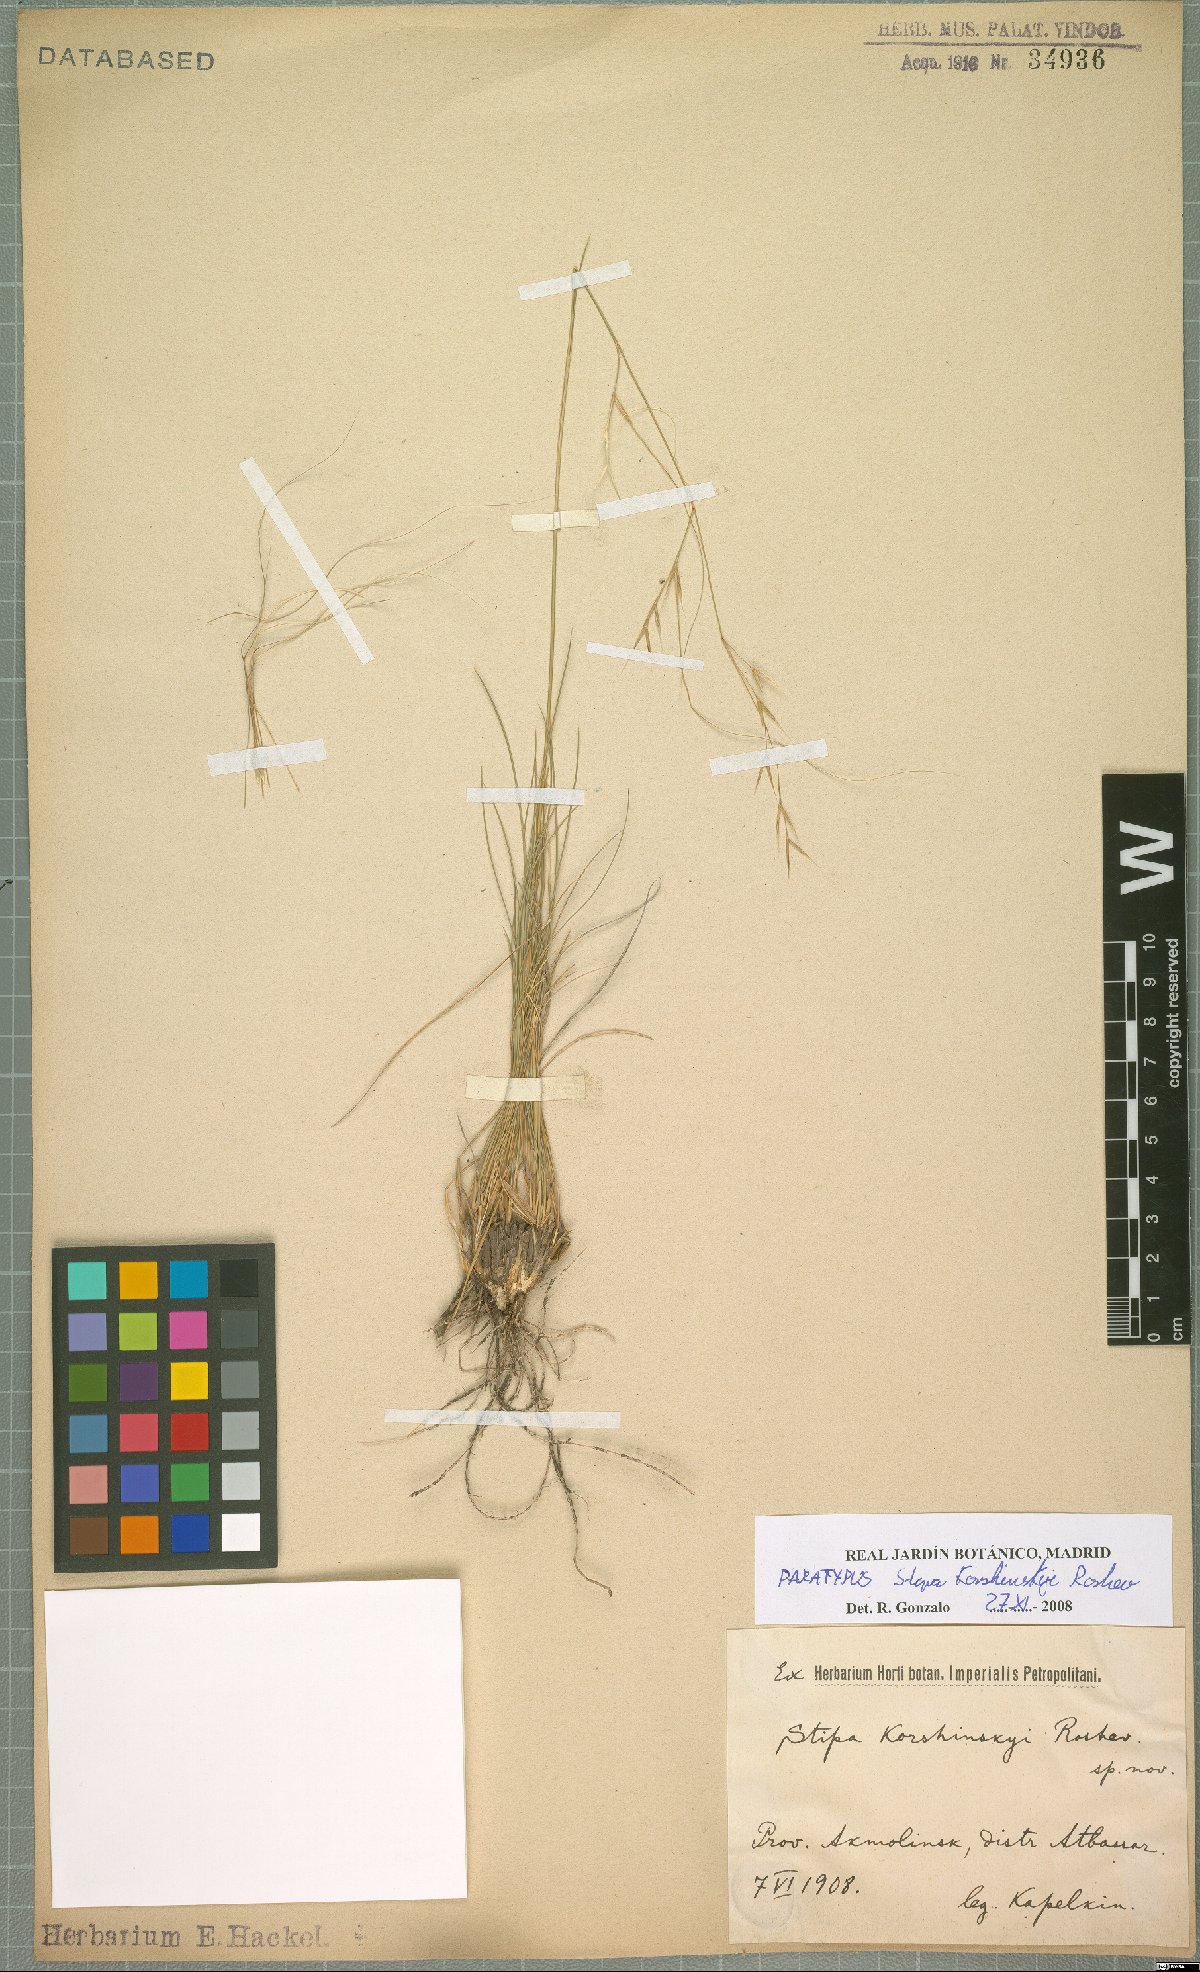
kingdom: Plantae
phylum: Tracheophyta
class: Liliopsida
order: Poales
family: Poaceae
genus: Stipa
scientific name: Stipa korshinskyi
